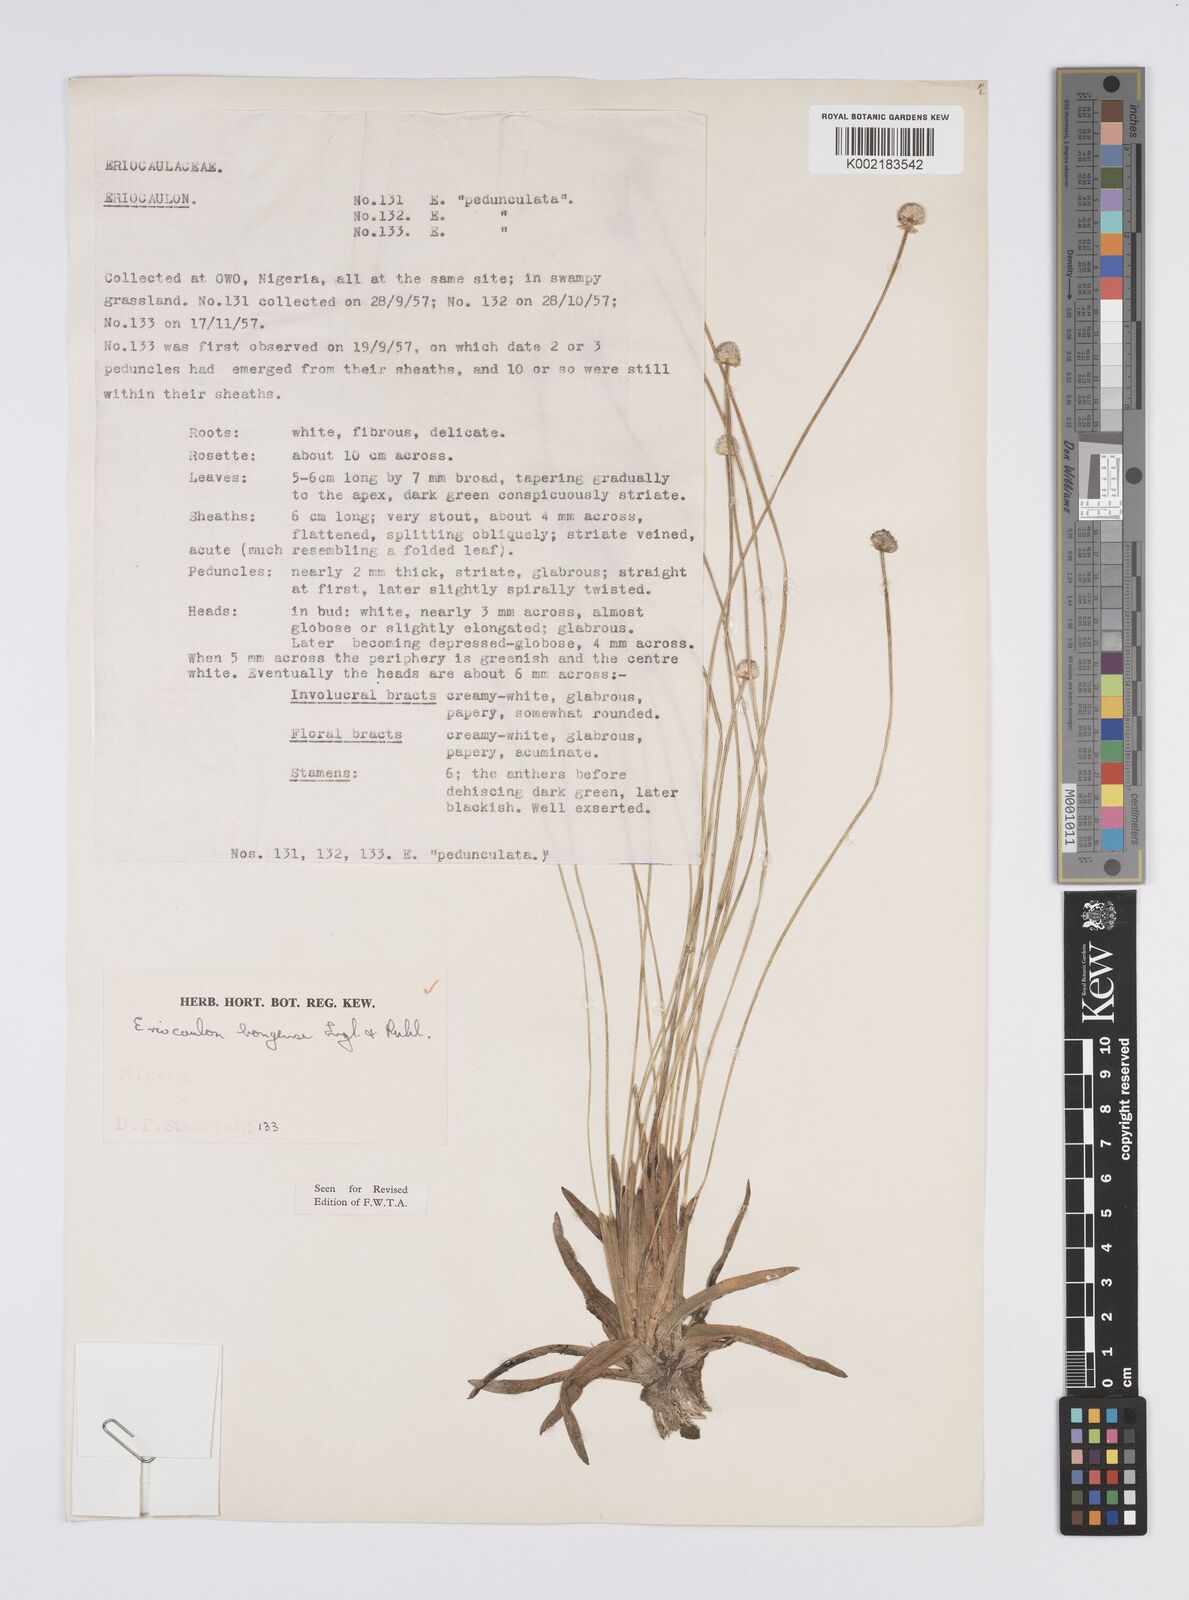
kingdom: Plantae
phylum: Tracheophyta
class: Liliopsida
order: Poales
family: Eriocaulaceae
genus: Eriocaulon
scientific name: Eriocaulon bongense
